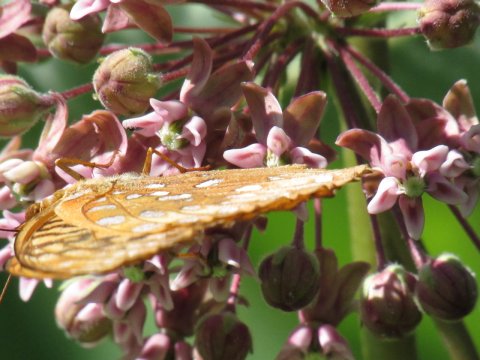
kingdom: Animalia
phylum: Arthropoda
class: Insecta
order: Lepidoptera
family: Nymphalidae
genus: Speyeria
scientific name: Speyeria cybele
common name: Great Spangled Fritillary
